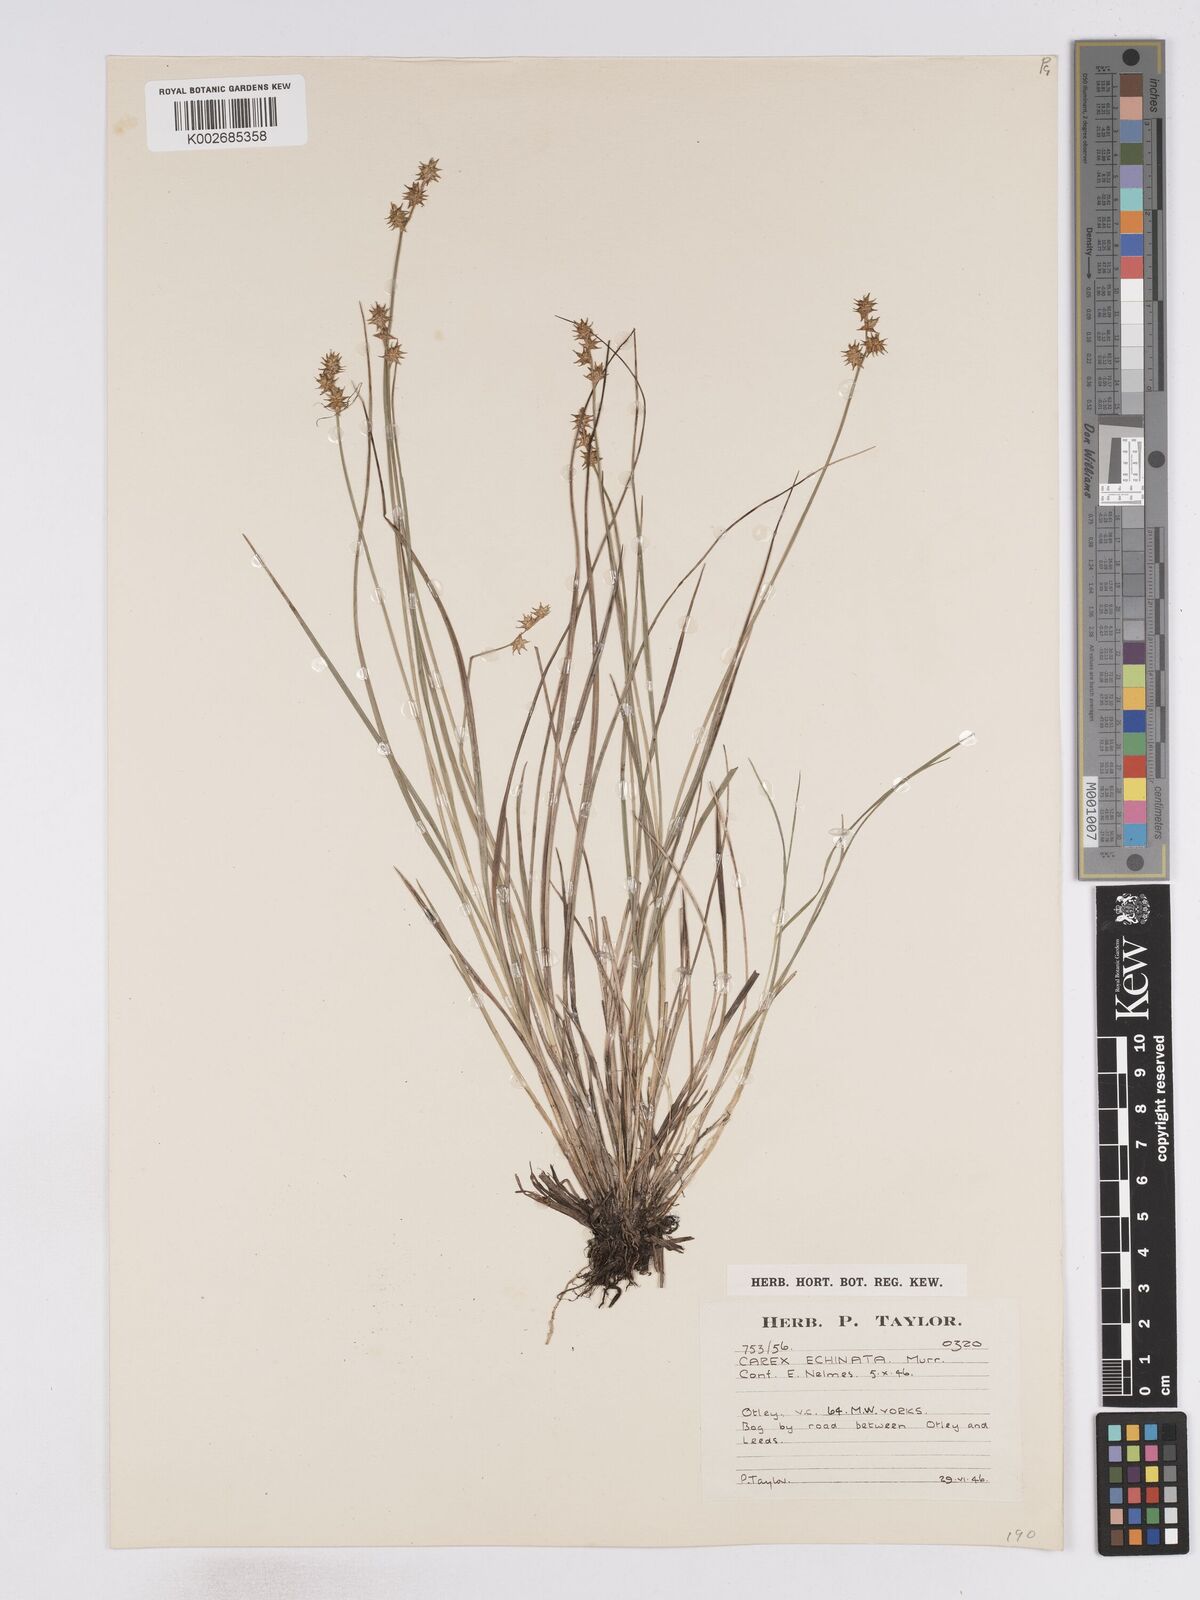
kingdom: Plantae
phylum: Tracheophyta
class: Liliopsida
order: Poales
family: Cyperaceae
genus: Carex
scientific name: Carex echinata
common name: Star sedge
